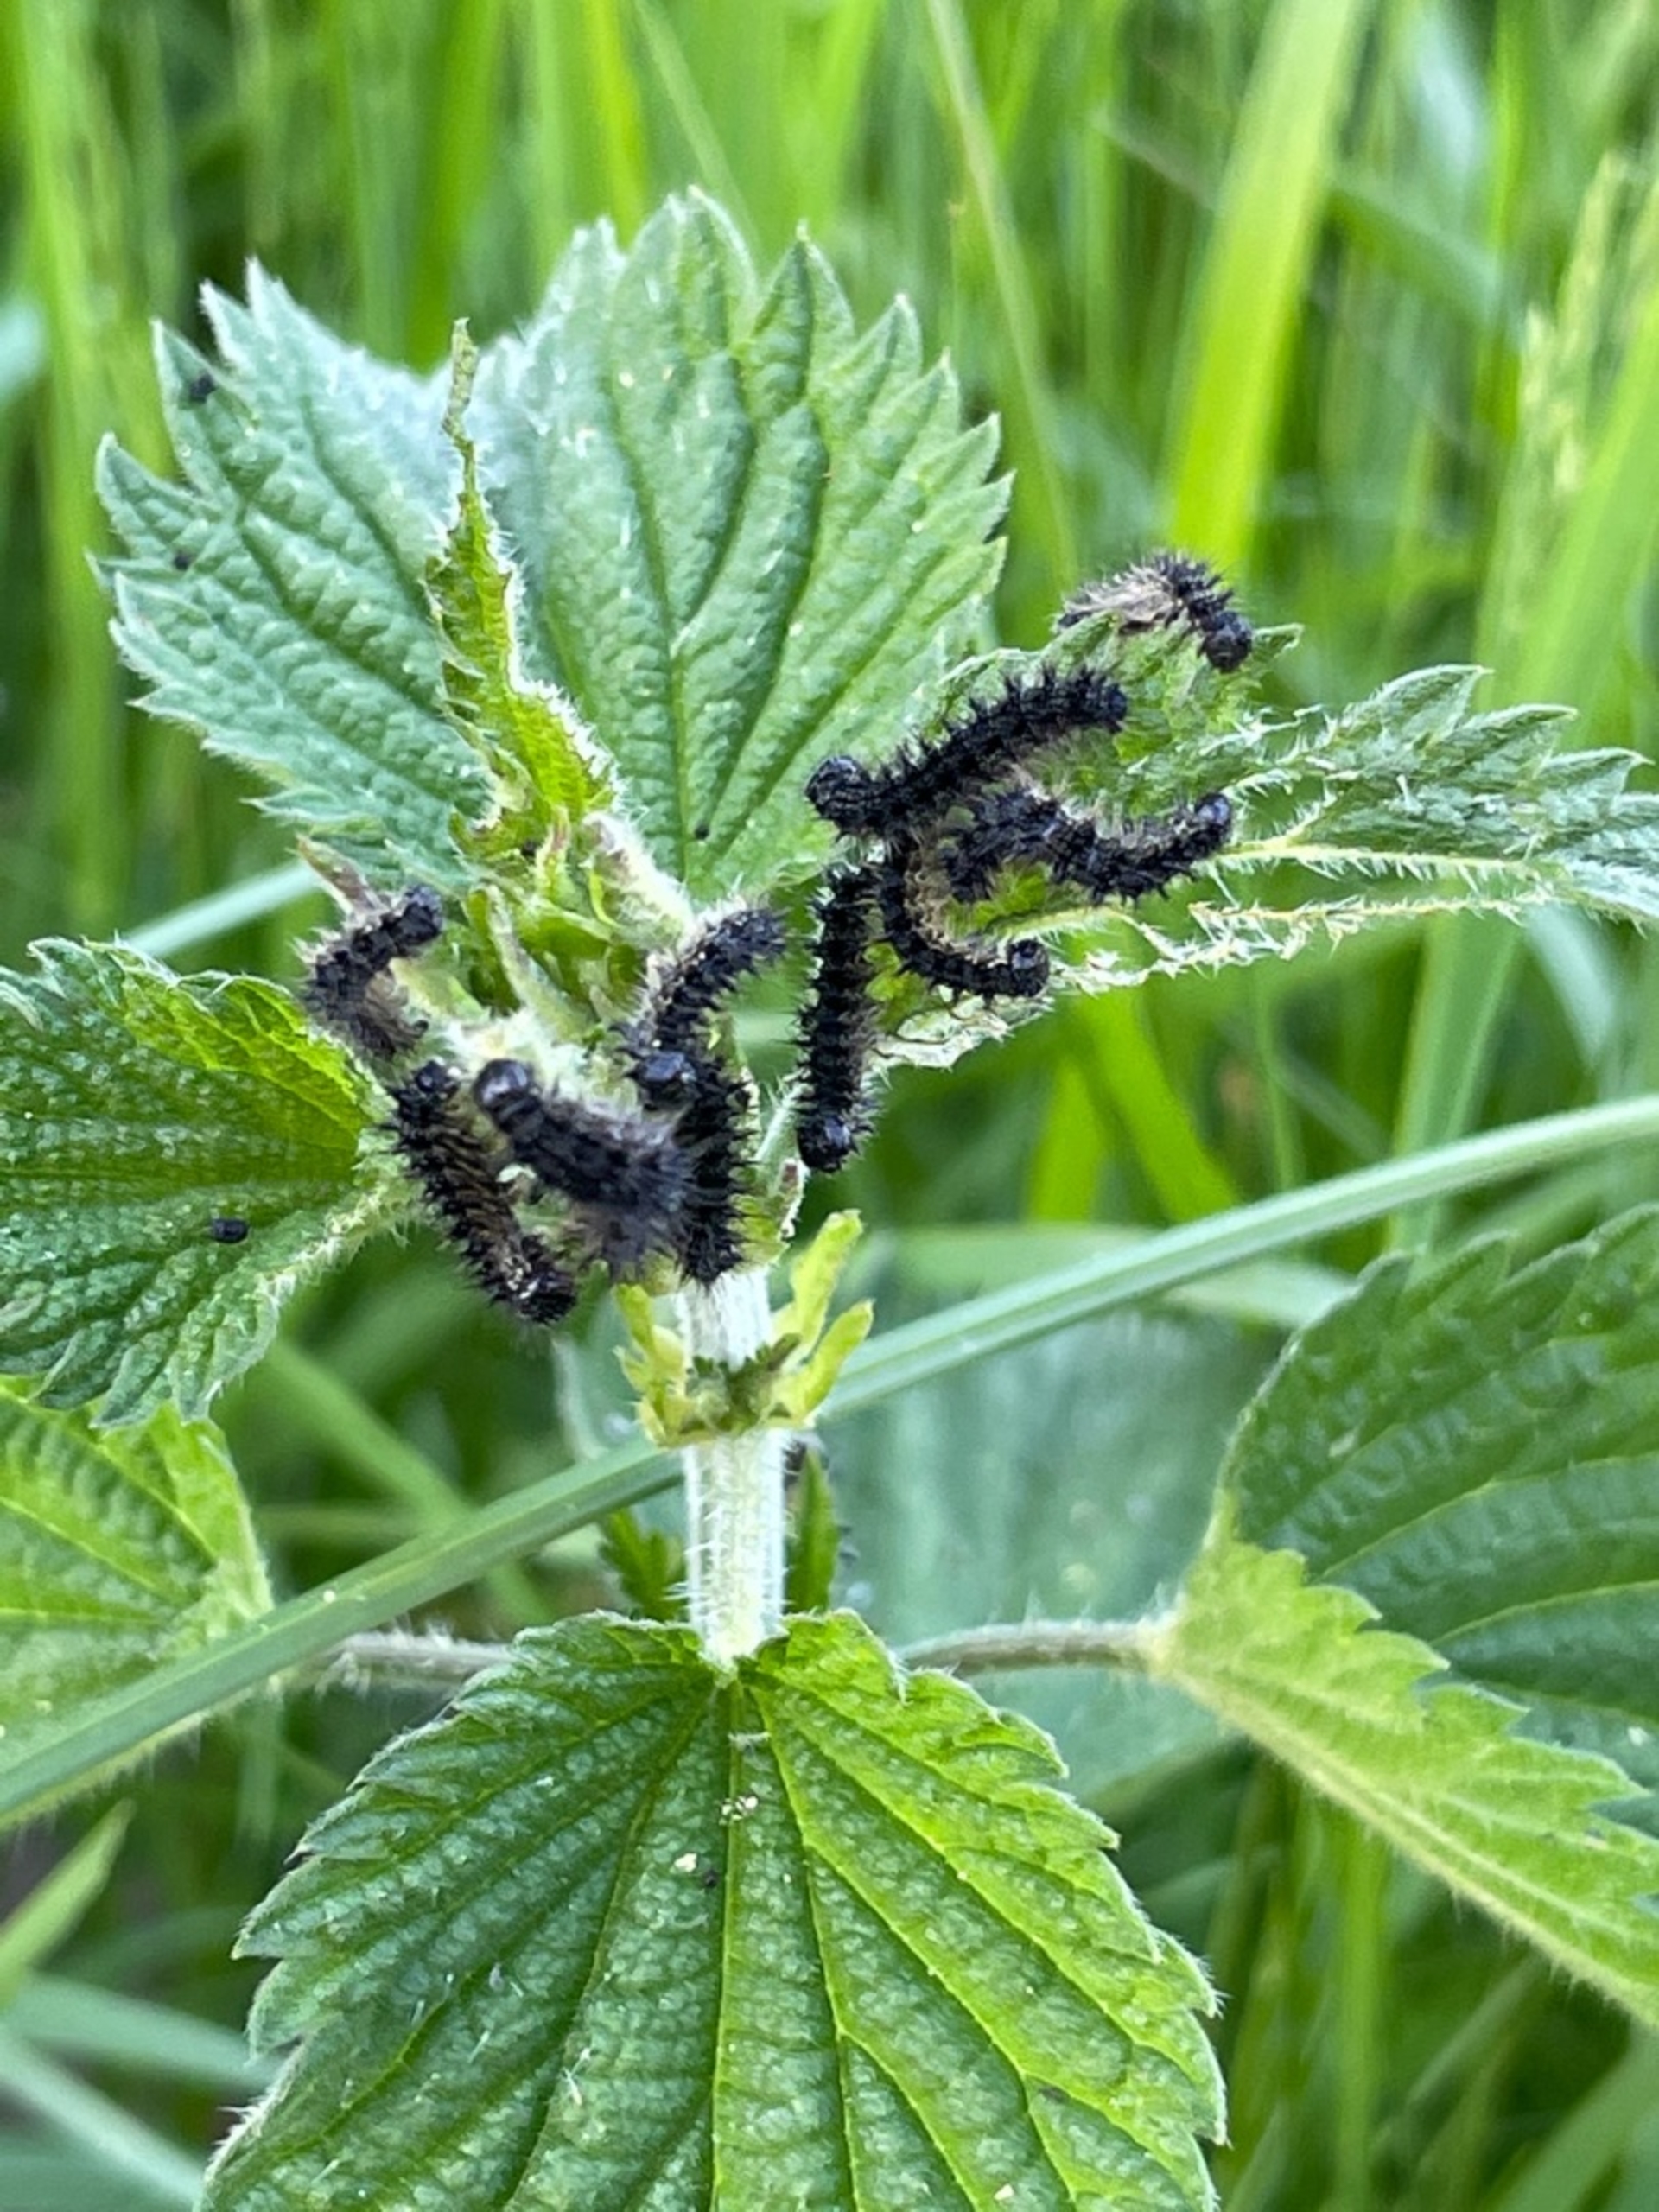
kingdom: Animalia
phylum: Arthropoda
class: Insecta
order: Lepidoptera
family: Nymphalidae
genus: Aglais
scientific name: Aglais io
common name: Dagpåfugleøje
